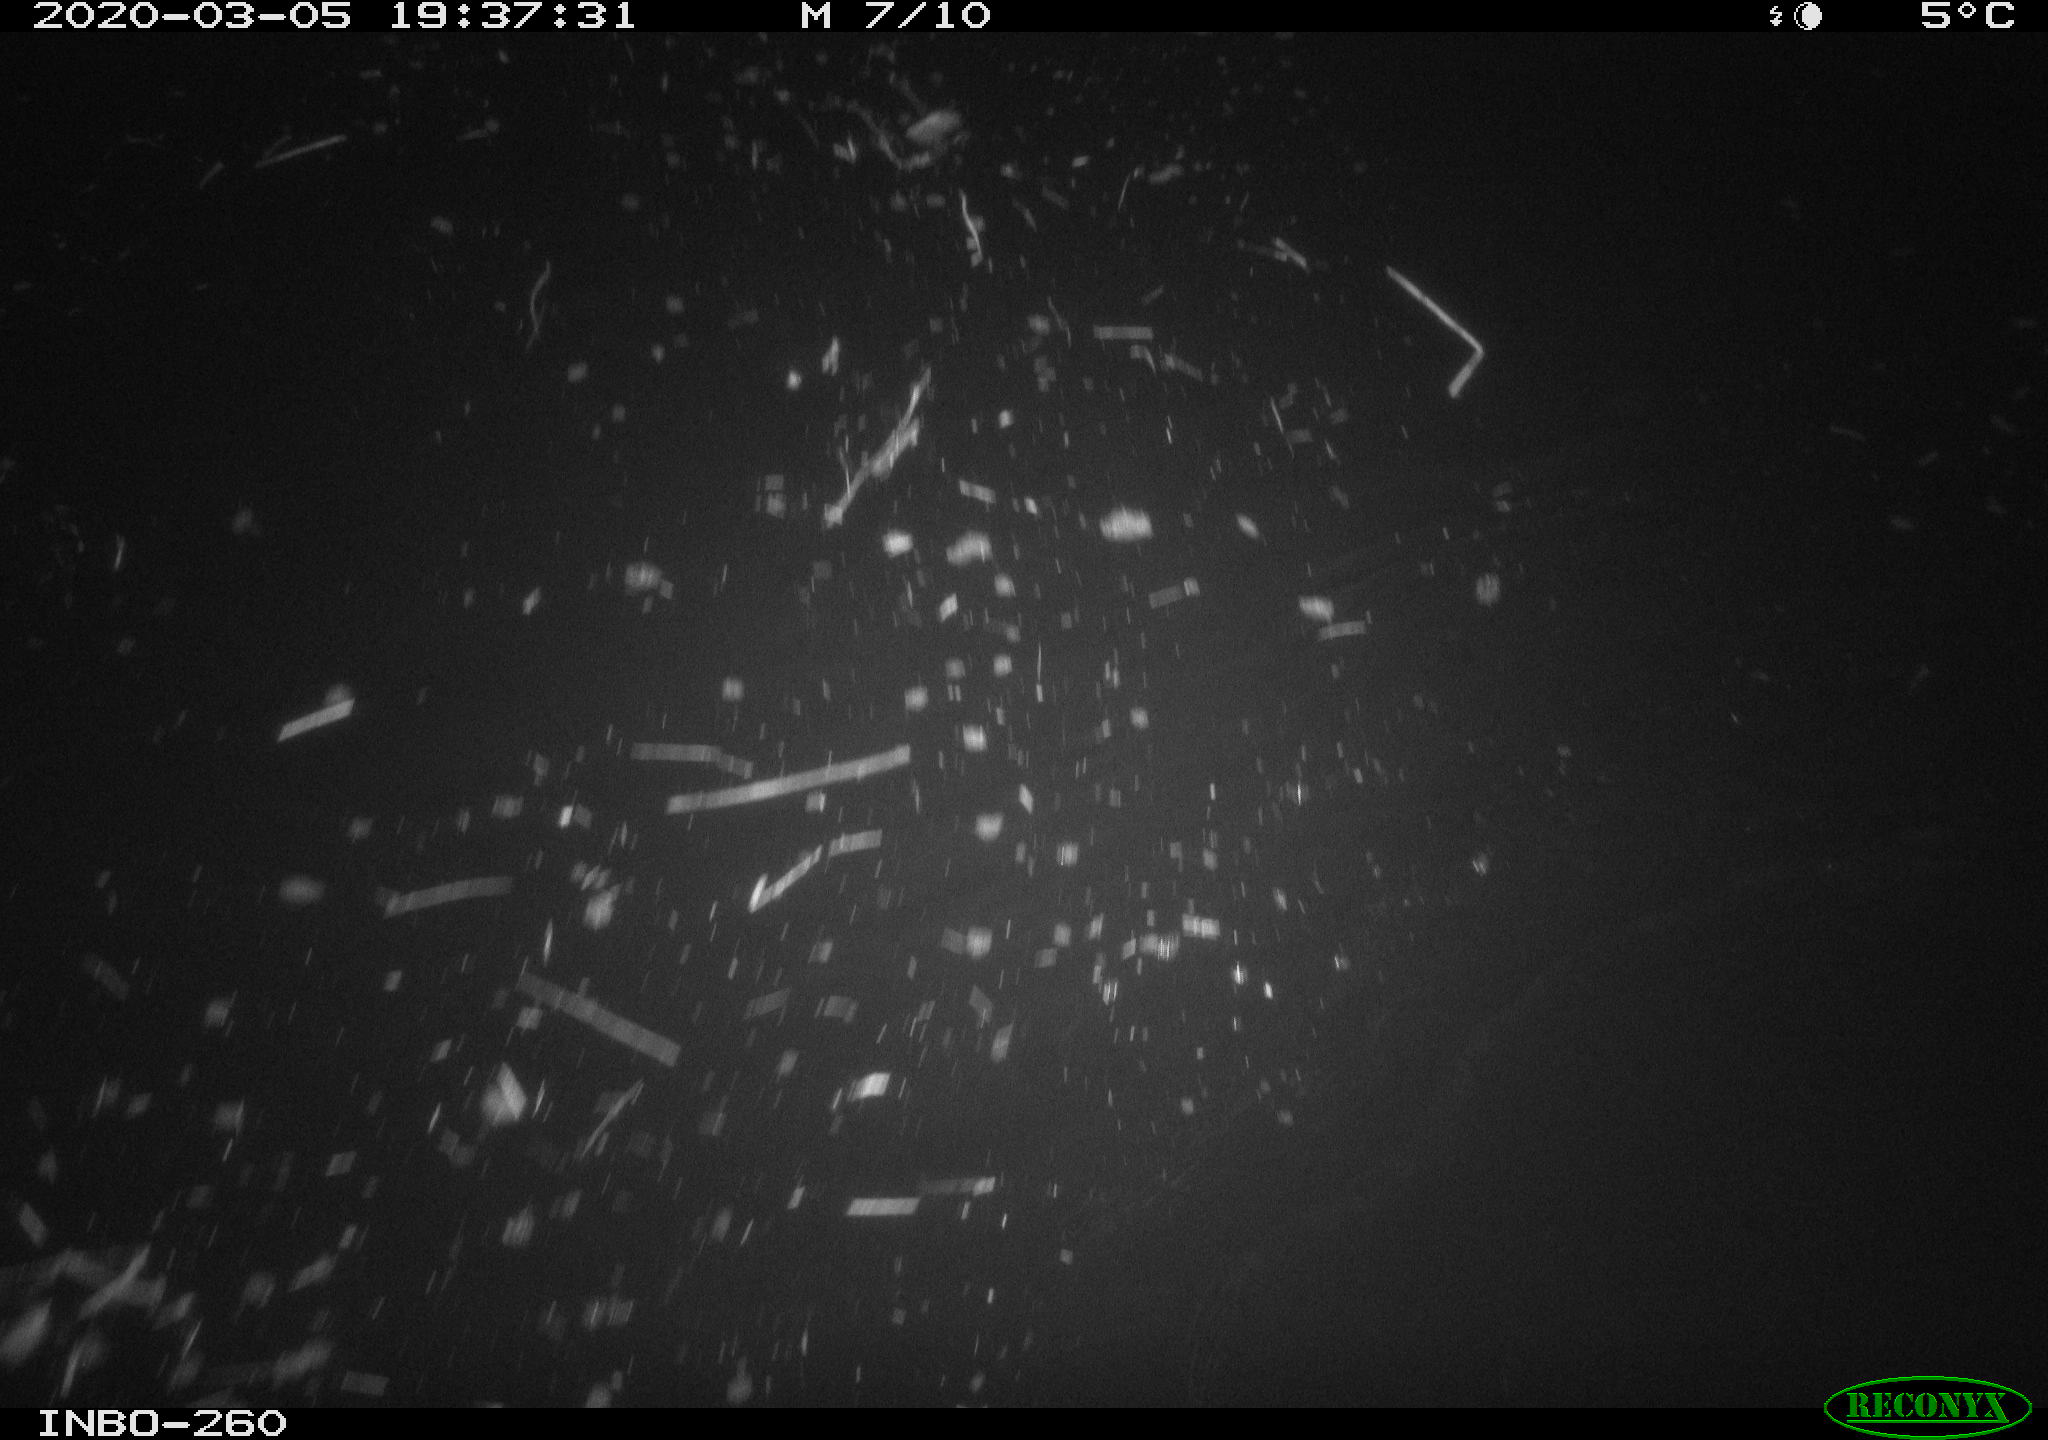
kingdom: Animalia
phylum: Chordata
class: Aves
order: Anseriformes
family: Anatidae
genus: Anas
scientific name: Anas platyrhynchos
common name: Mallard
